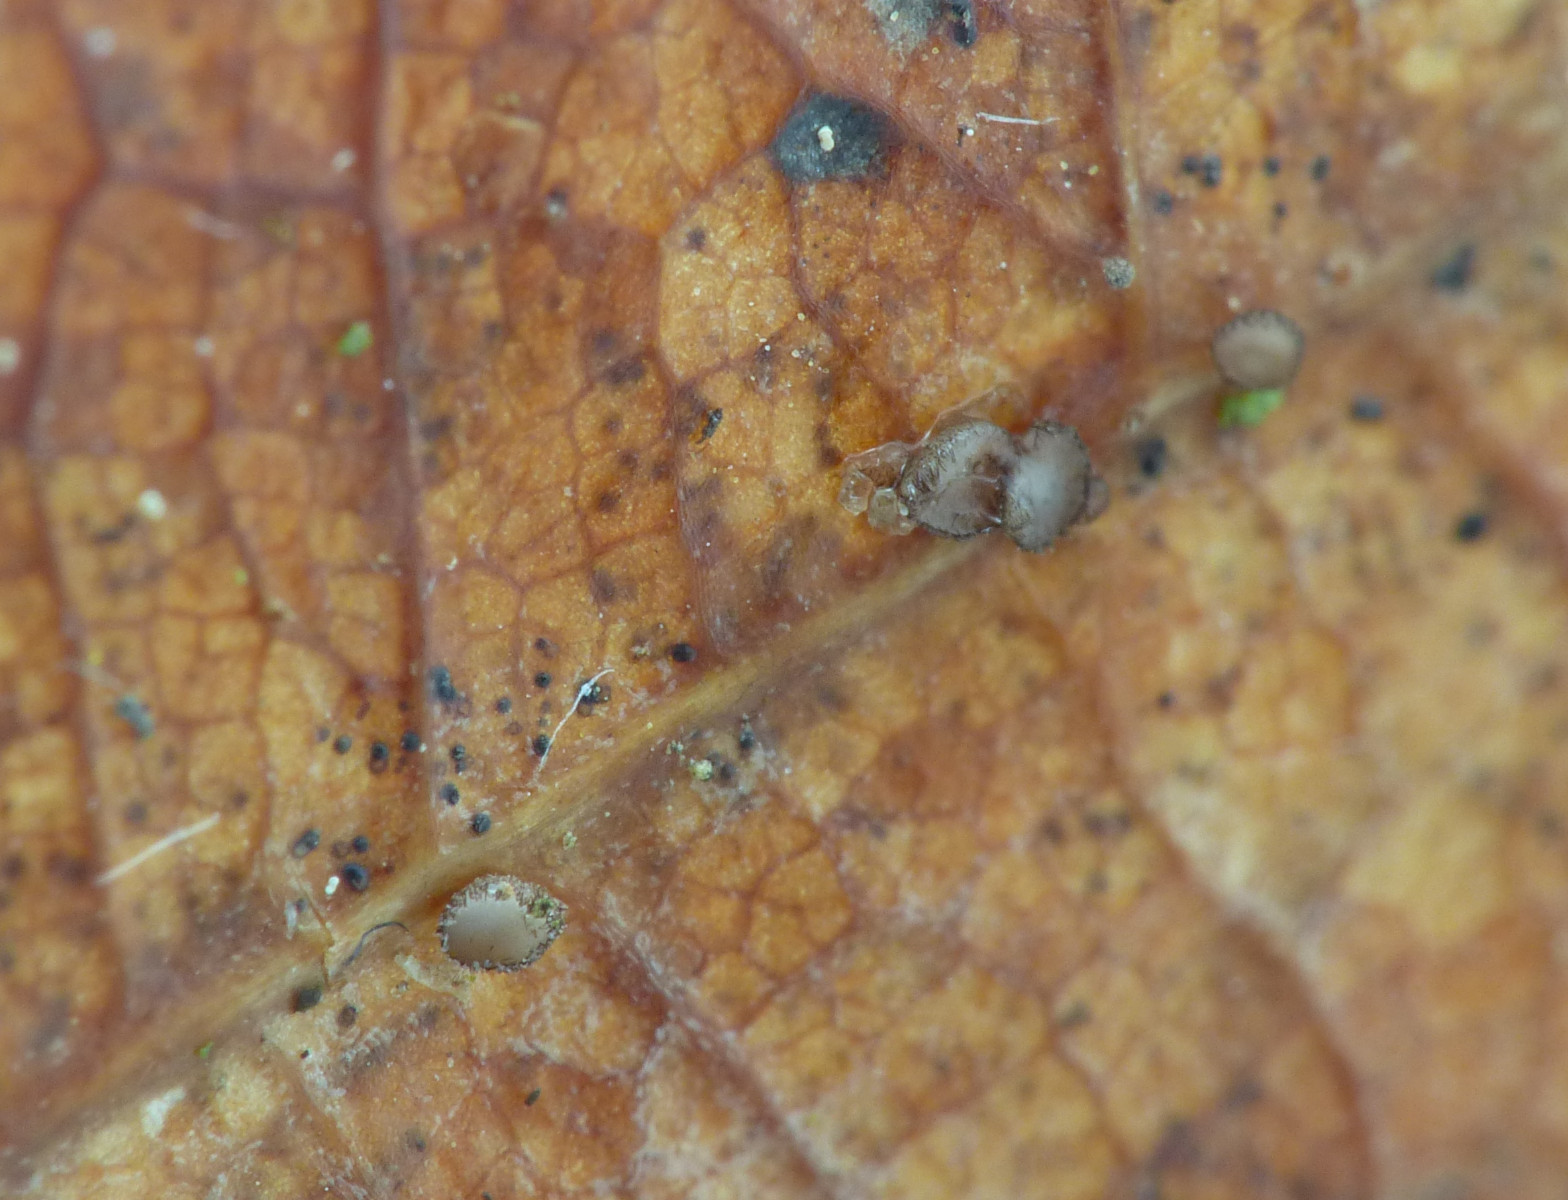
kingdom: Fungi
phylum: Ascomycota
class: Leotiomycetes
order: Helotiales
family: Lachnaceae
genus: Brunnipila
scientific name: Brunnipila brunneola
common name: læderbrun frynseskive
